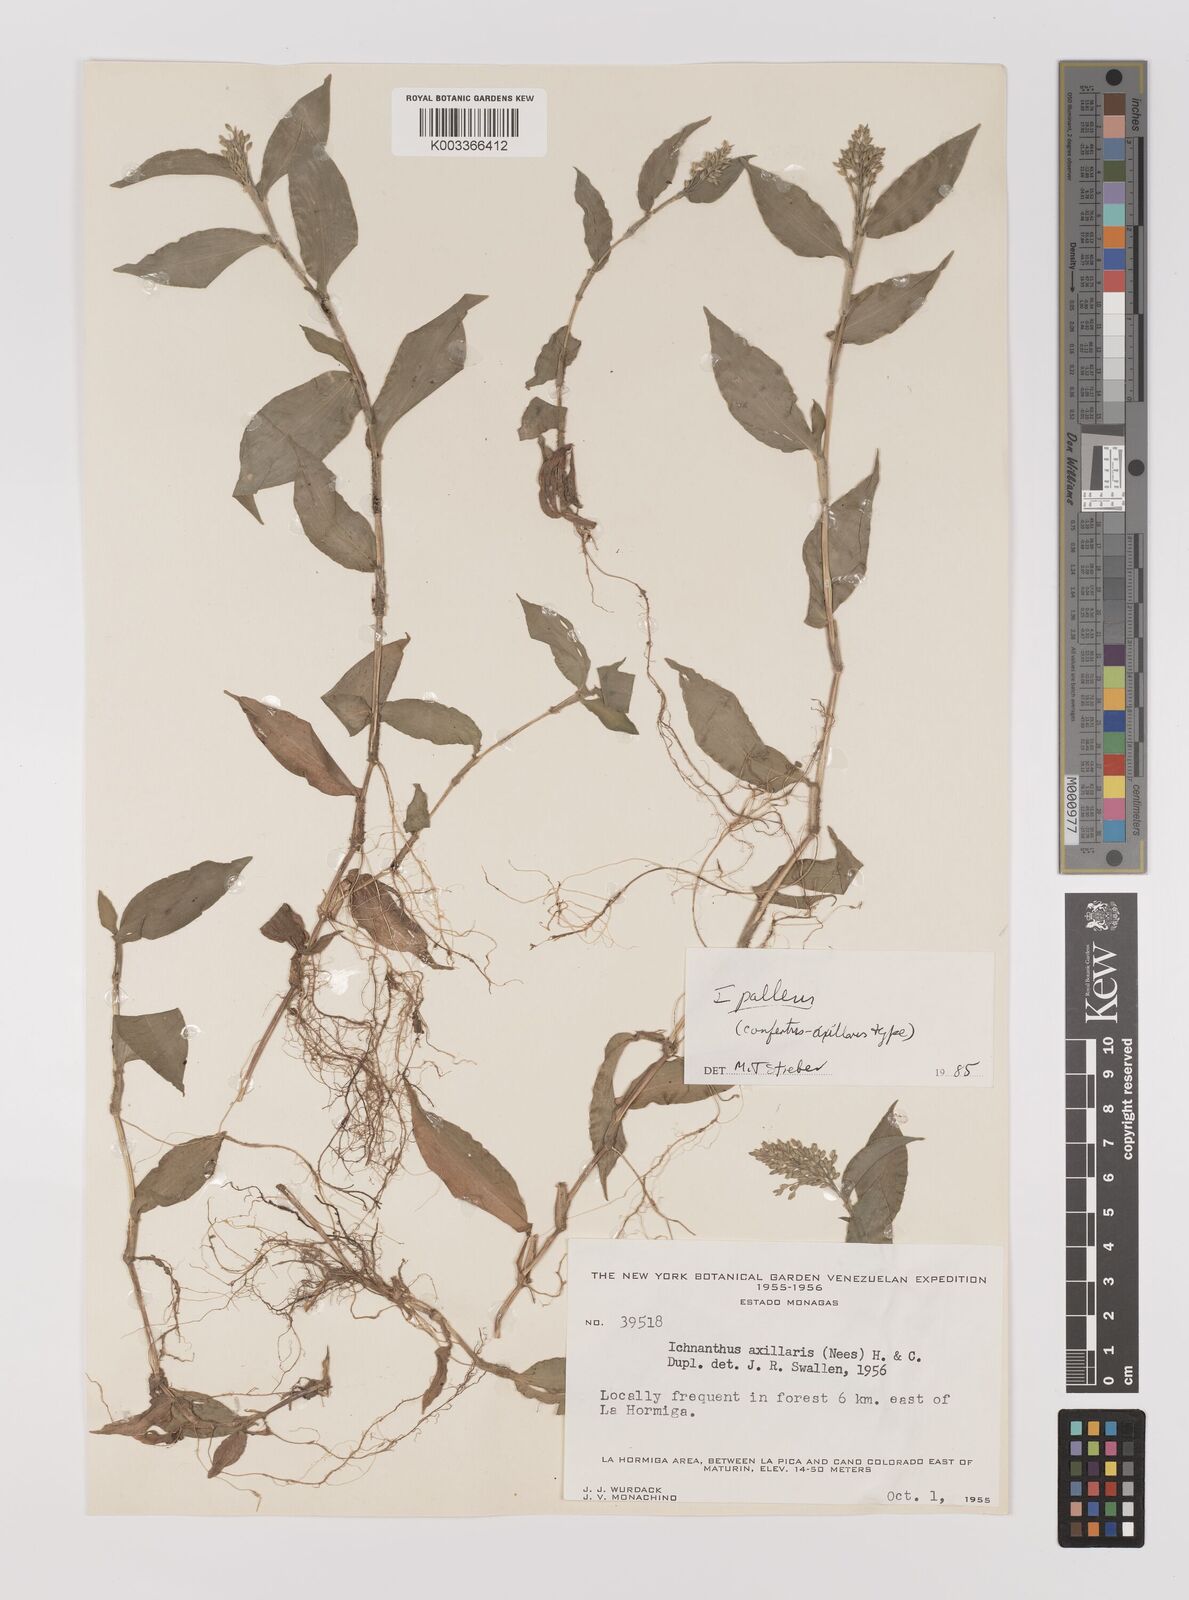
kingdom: Plantae
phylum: Tracheophyta
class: Liliopsida
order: Poales
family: Poaceae
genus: Ichnanthus
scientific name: Ichnanthus pallens
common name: Water grass
